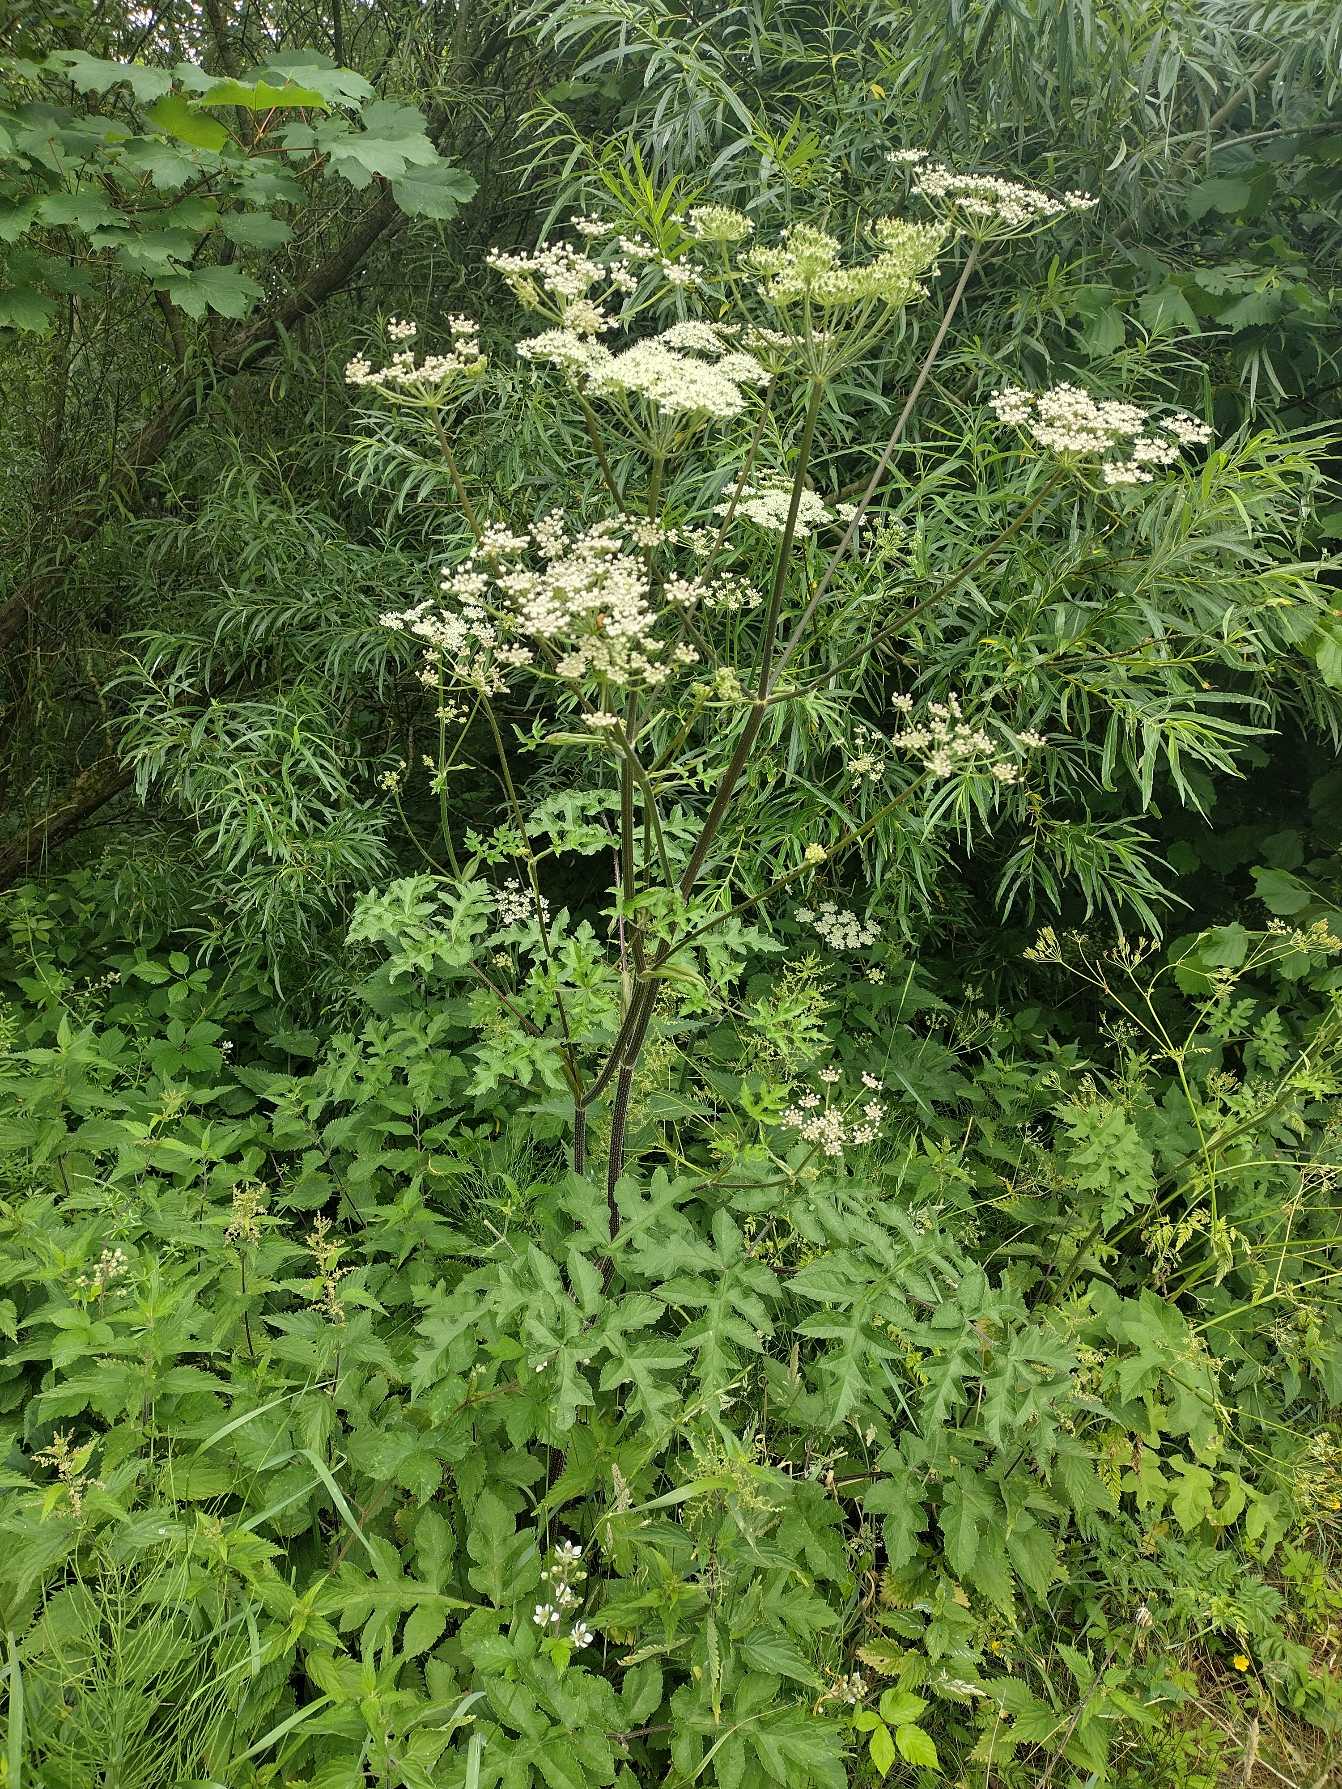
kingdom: Plantae
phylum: Tracheophyta
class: Magnoliopsida
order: Apiales
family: Apiaceae
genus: Heracleum
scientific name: Heracleum sphondylium
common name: Almindelig bjørneklo
